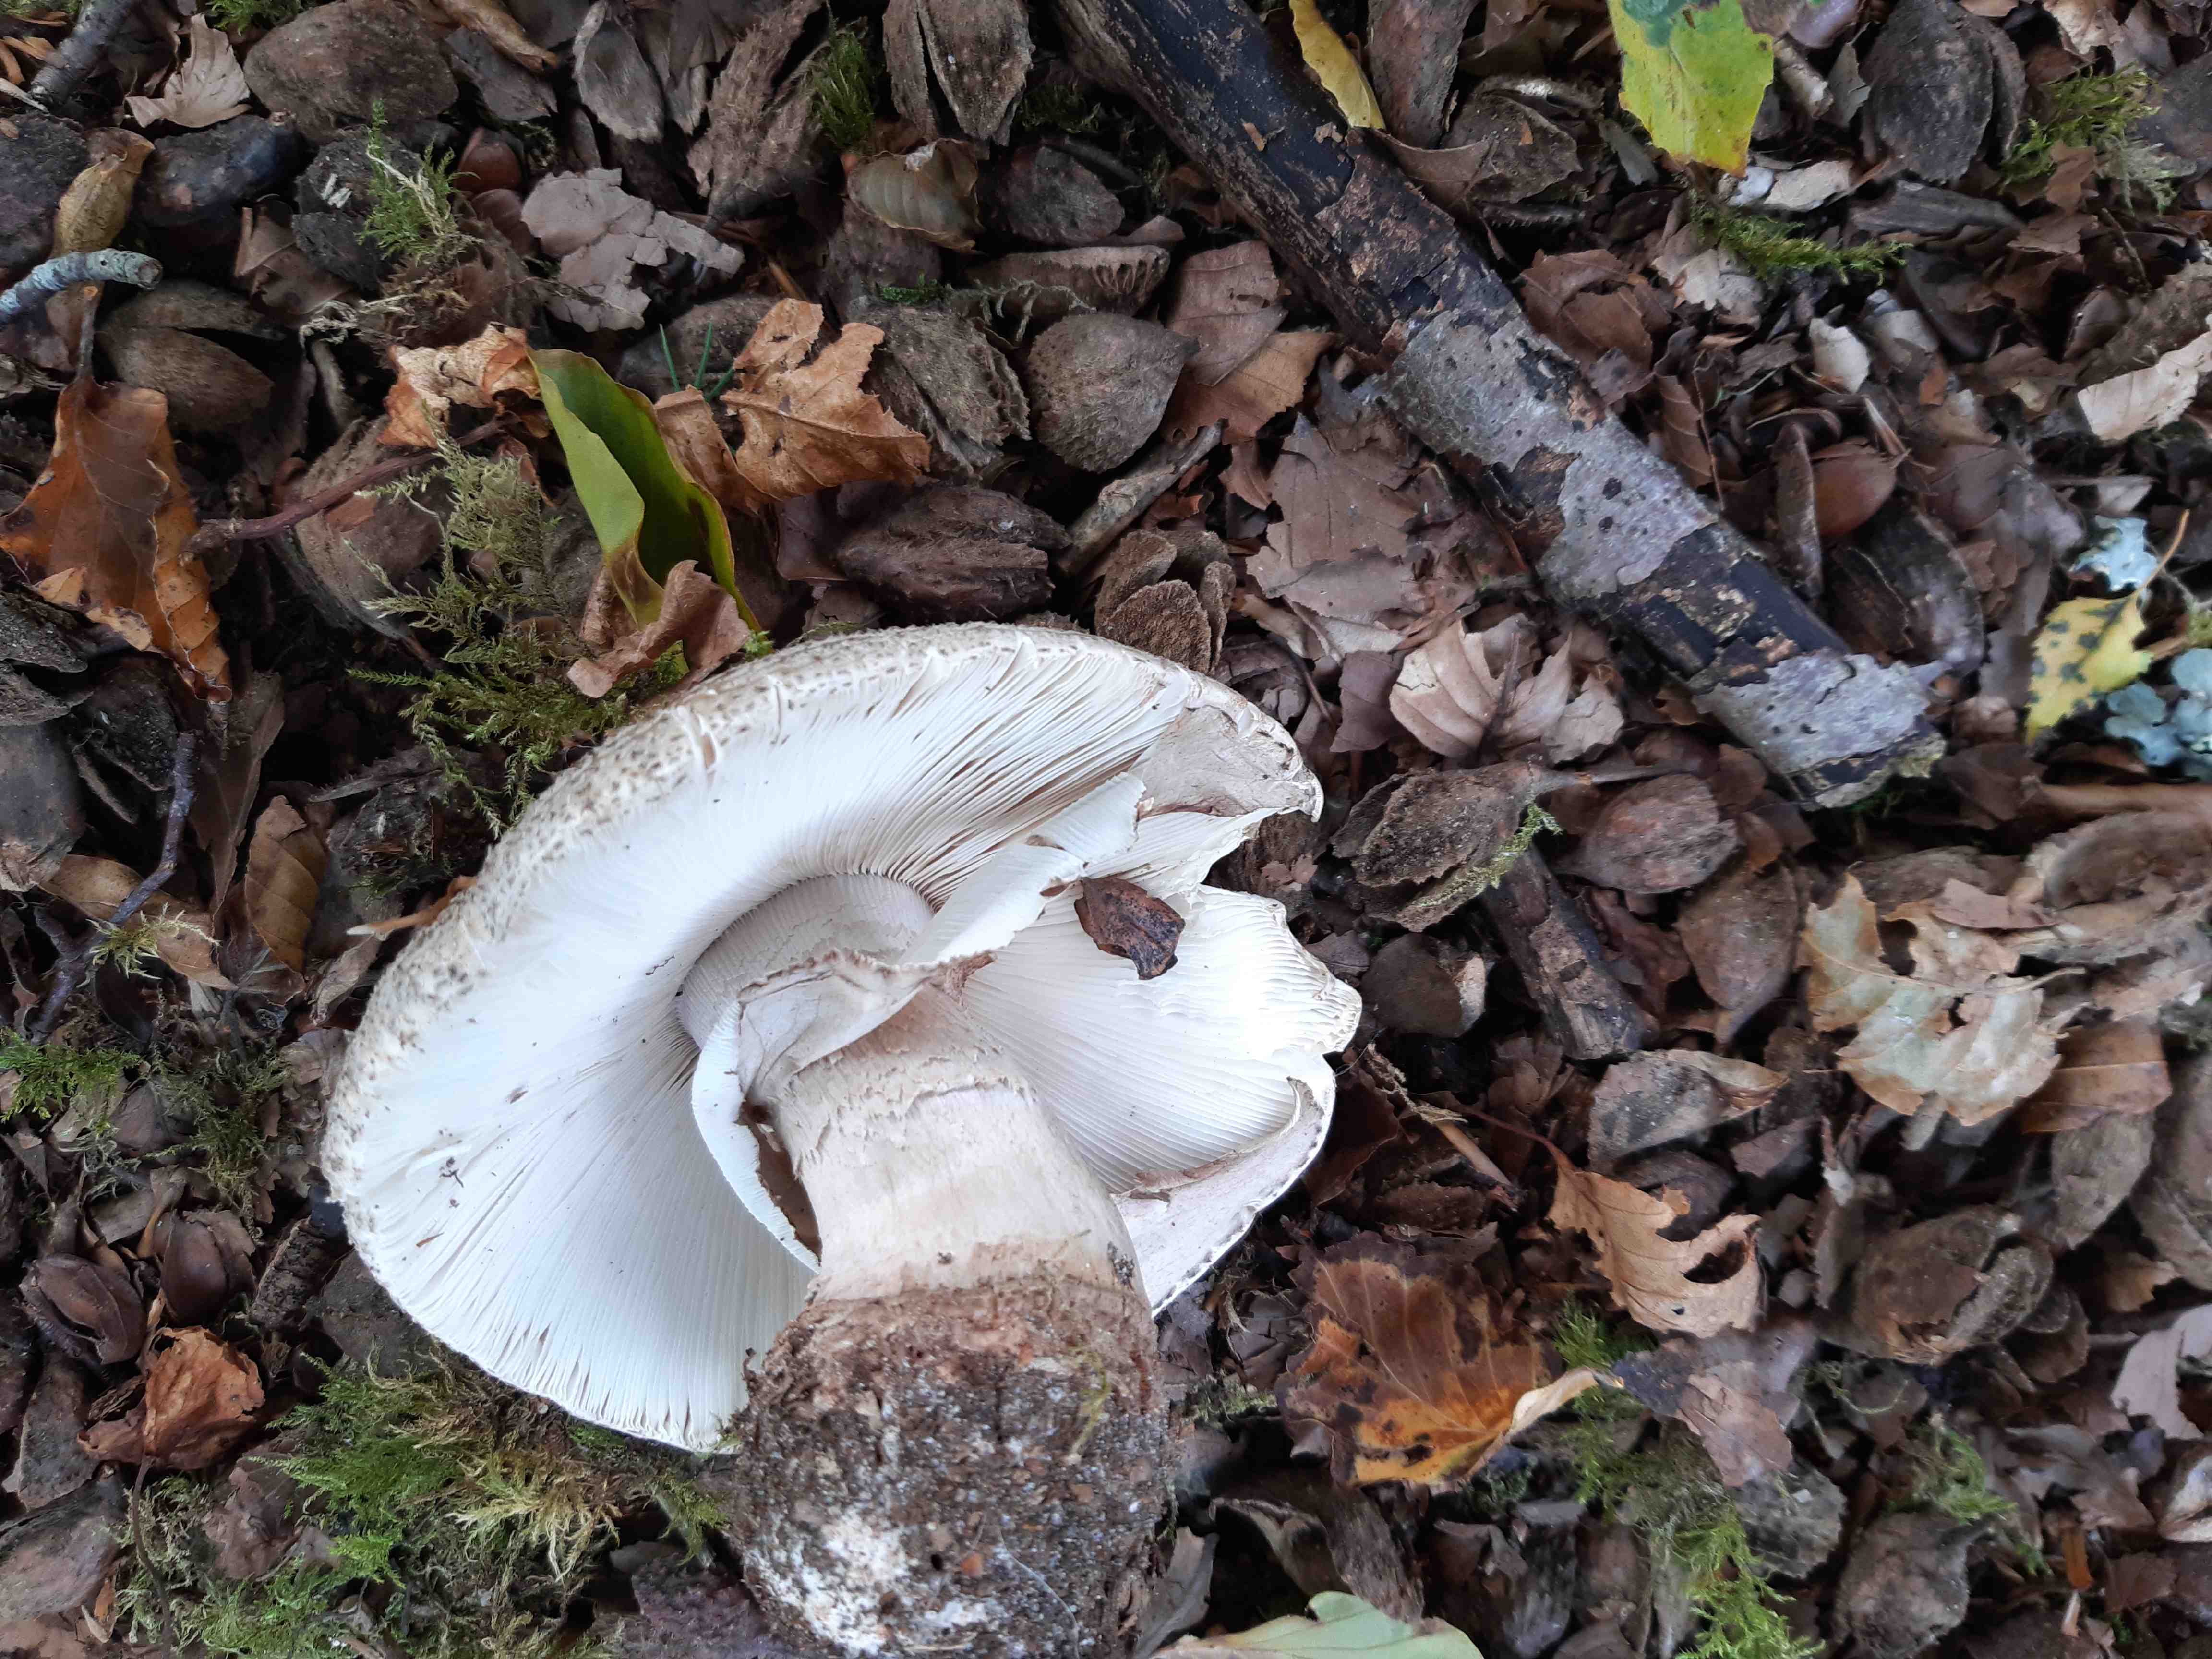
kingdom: Fungi
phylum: Basidiomycota
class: Agaricomycetes
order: Agaricales
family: Amanitaceae
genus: Amanita
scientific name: Amanita rubescens
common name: rødmende fluesvamp
